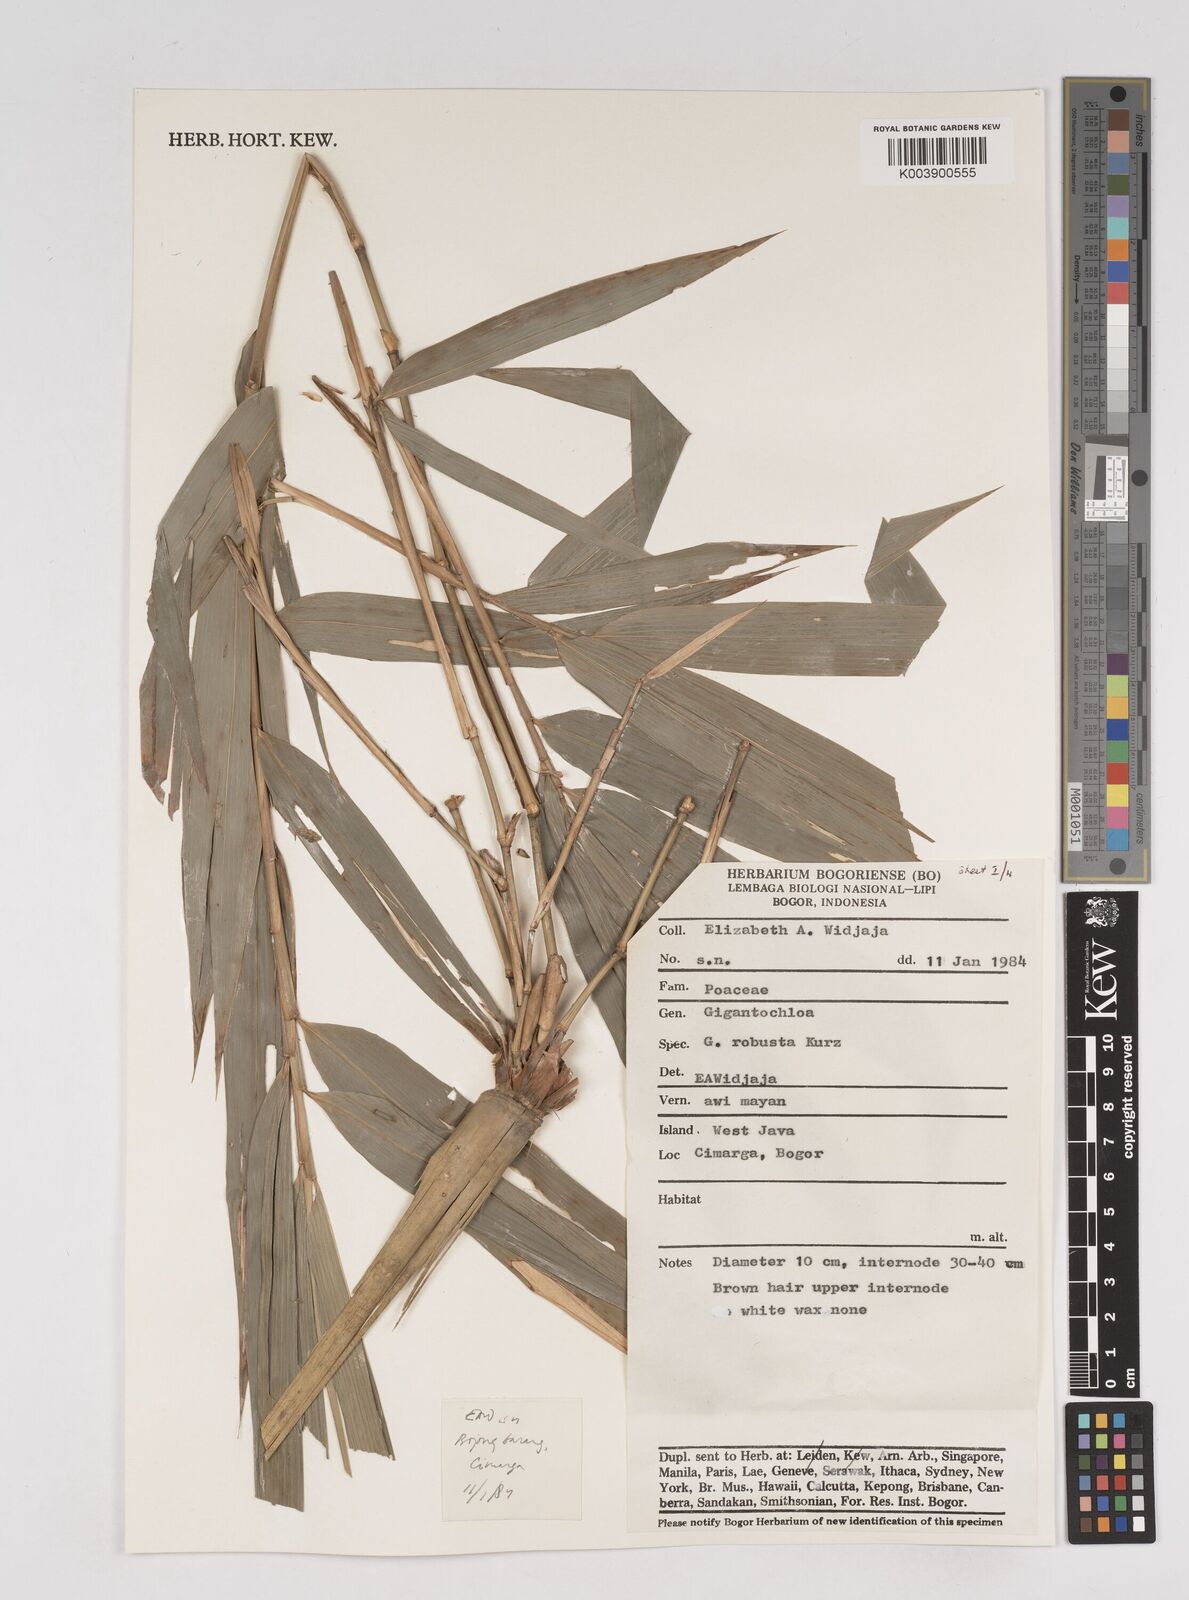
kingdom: Plantae
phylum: Tracheophyta
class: Liliopsida
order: Poales
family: Poaceae
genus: Gigantochloa
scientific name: Gigantochloa robusta
